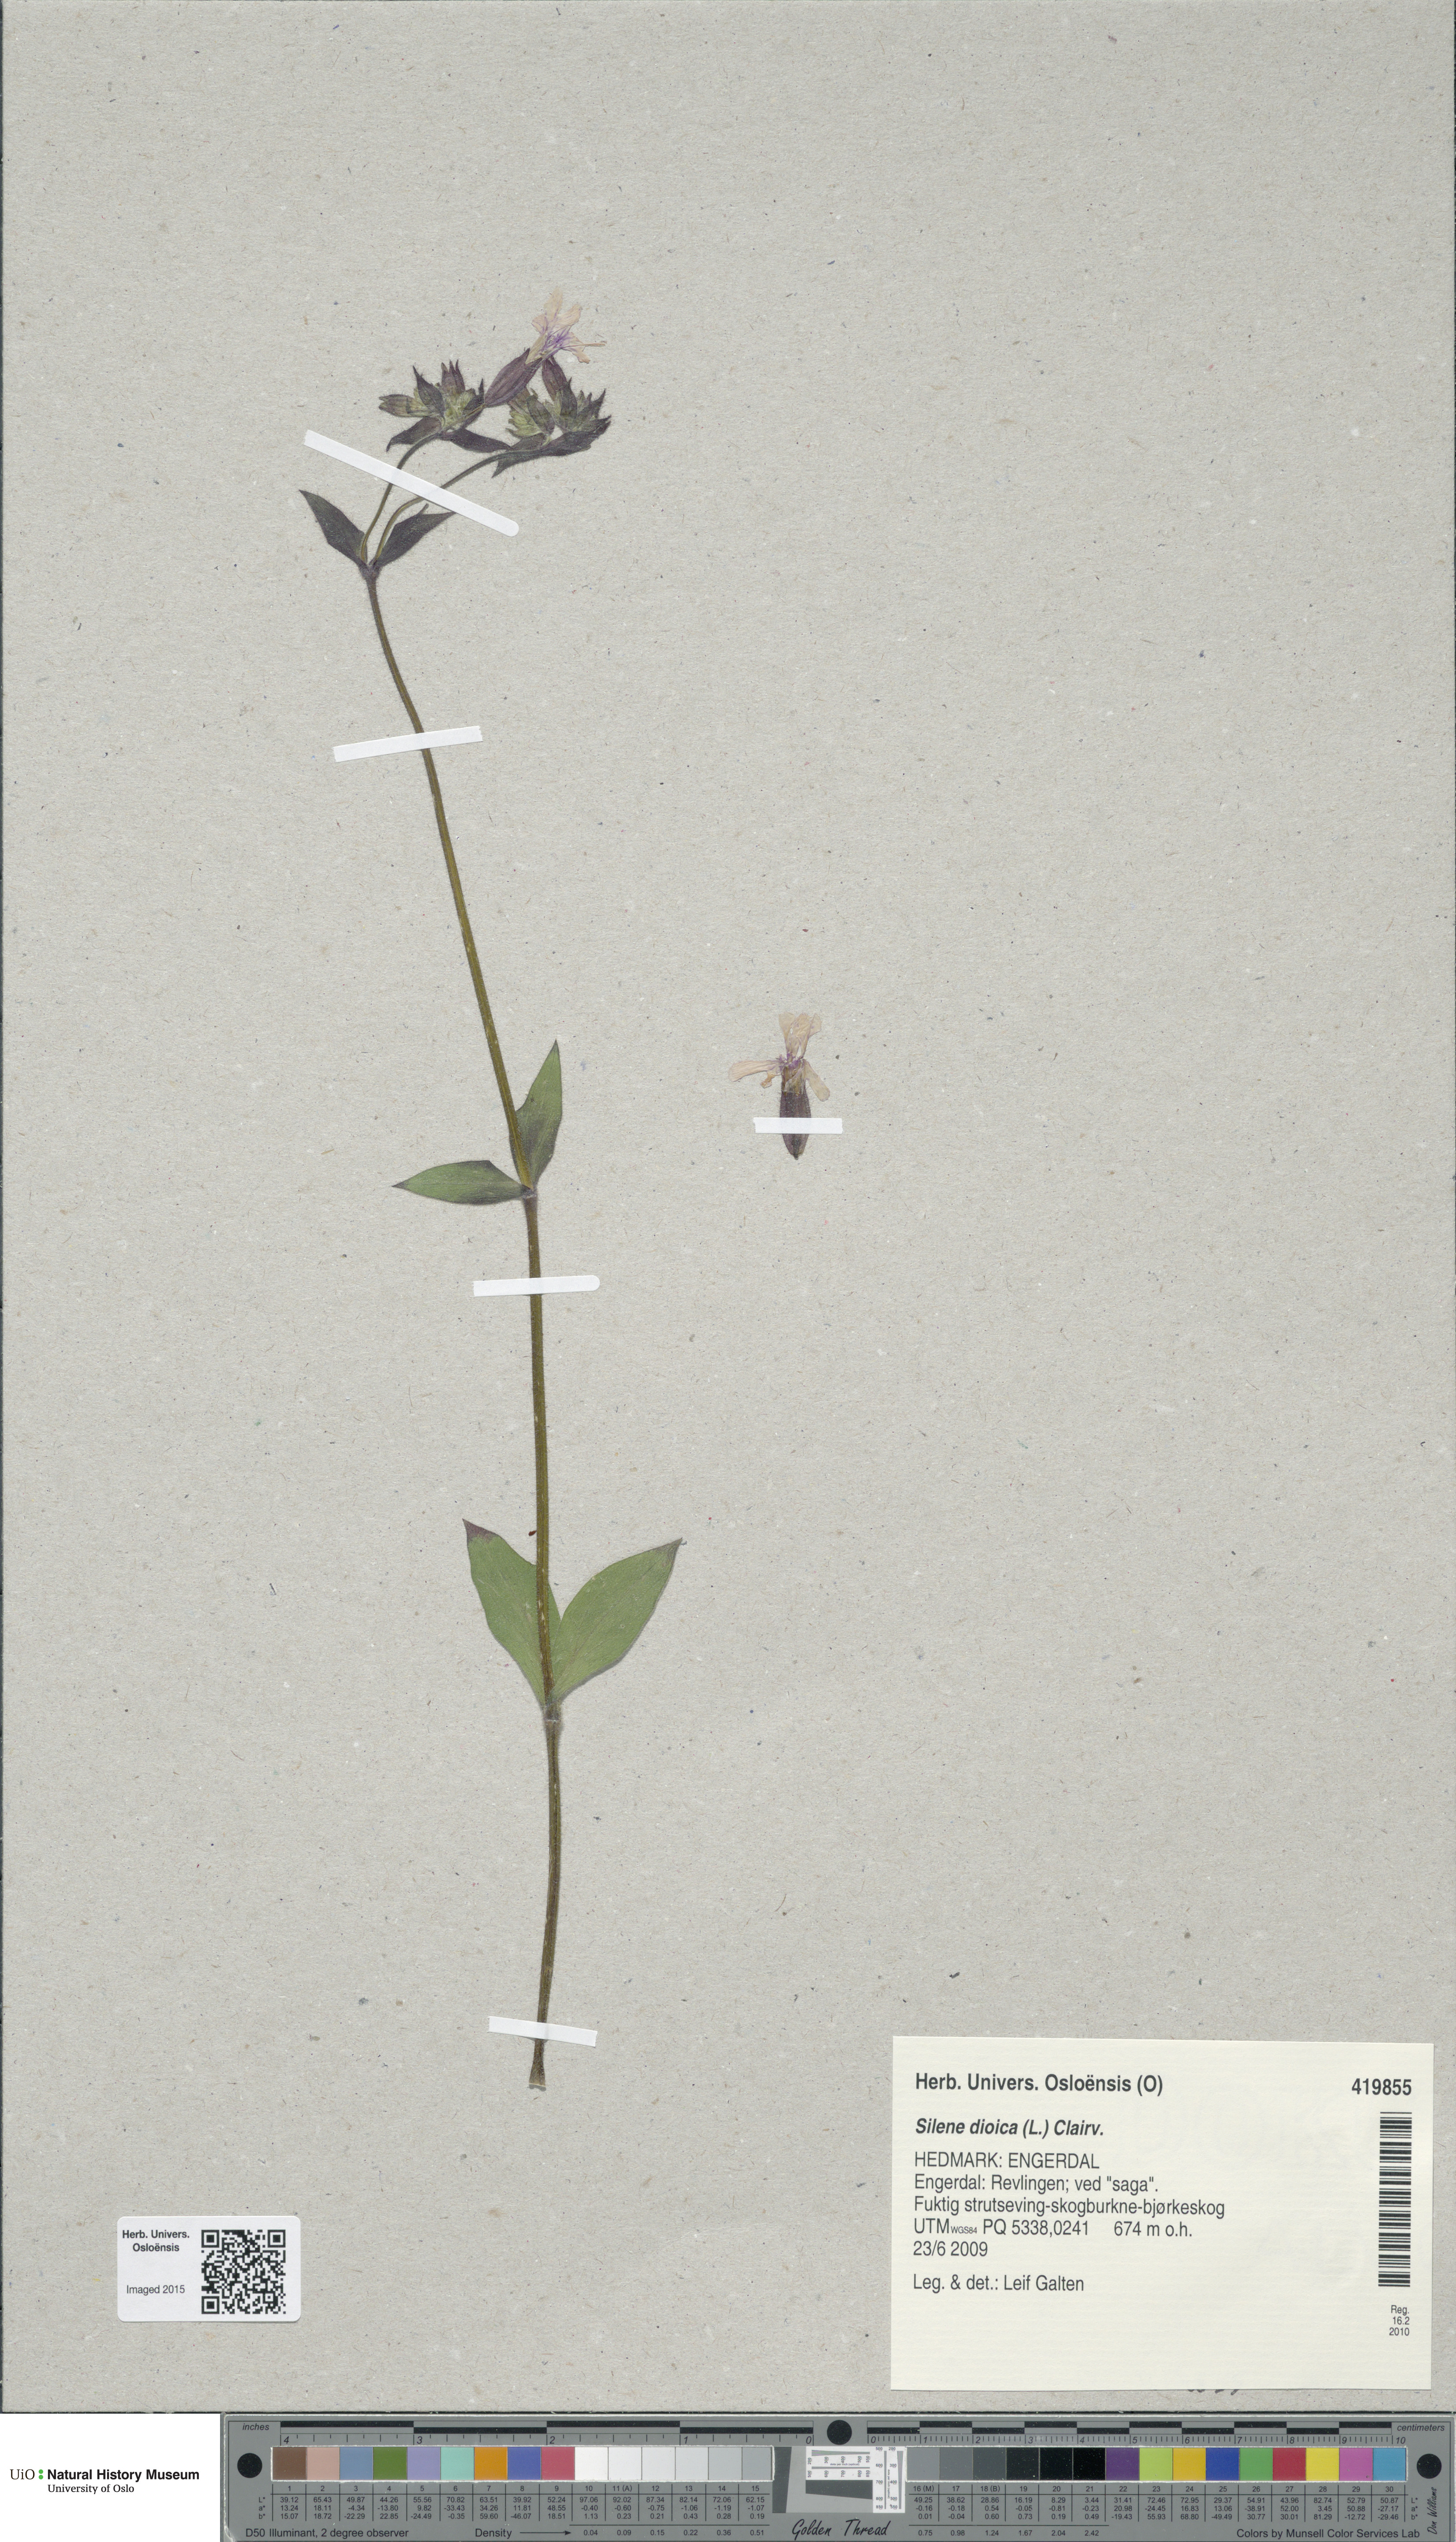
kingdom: Plantae
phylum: Tracheophyta
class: Magnoliopsida
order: Caryophyllales
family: Caryophyllaceae
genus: Silene
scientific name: Silene dioica
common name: Red campion
